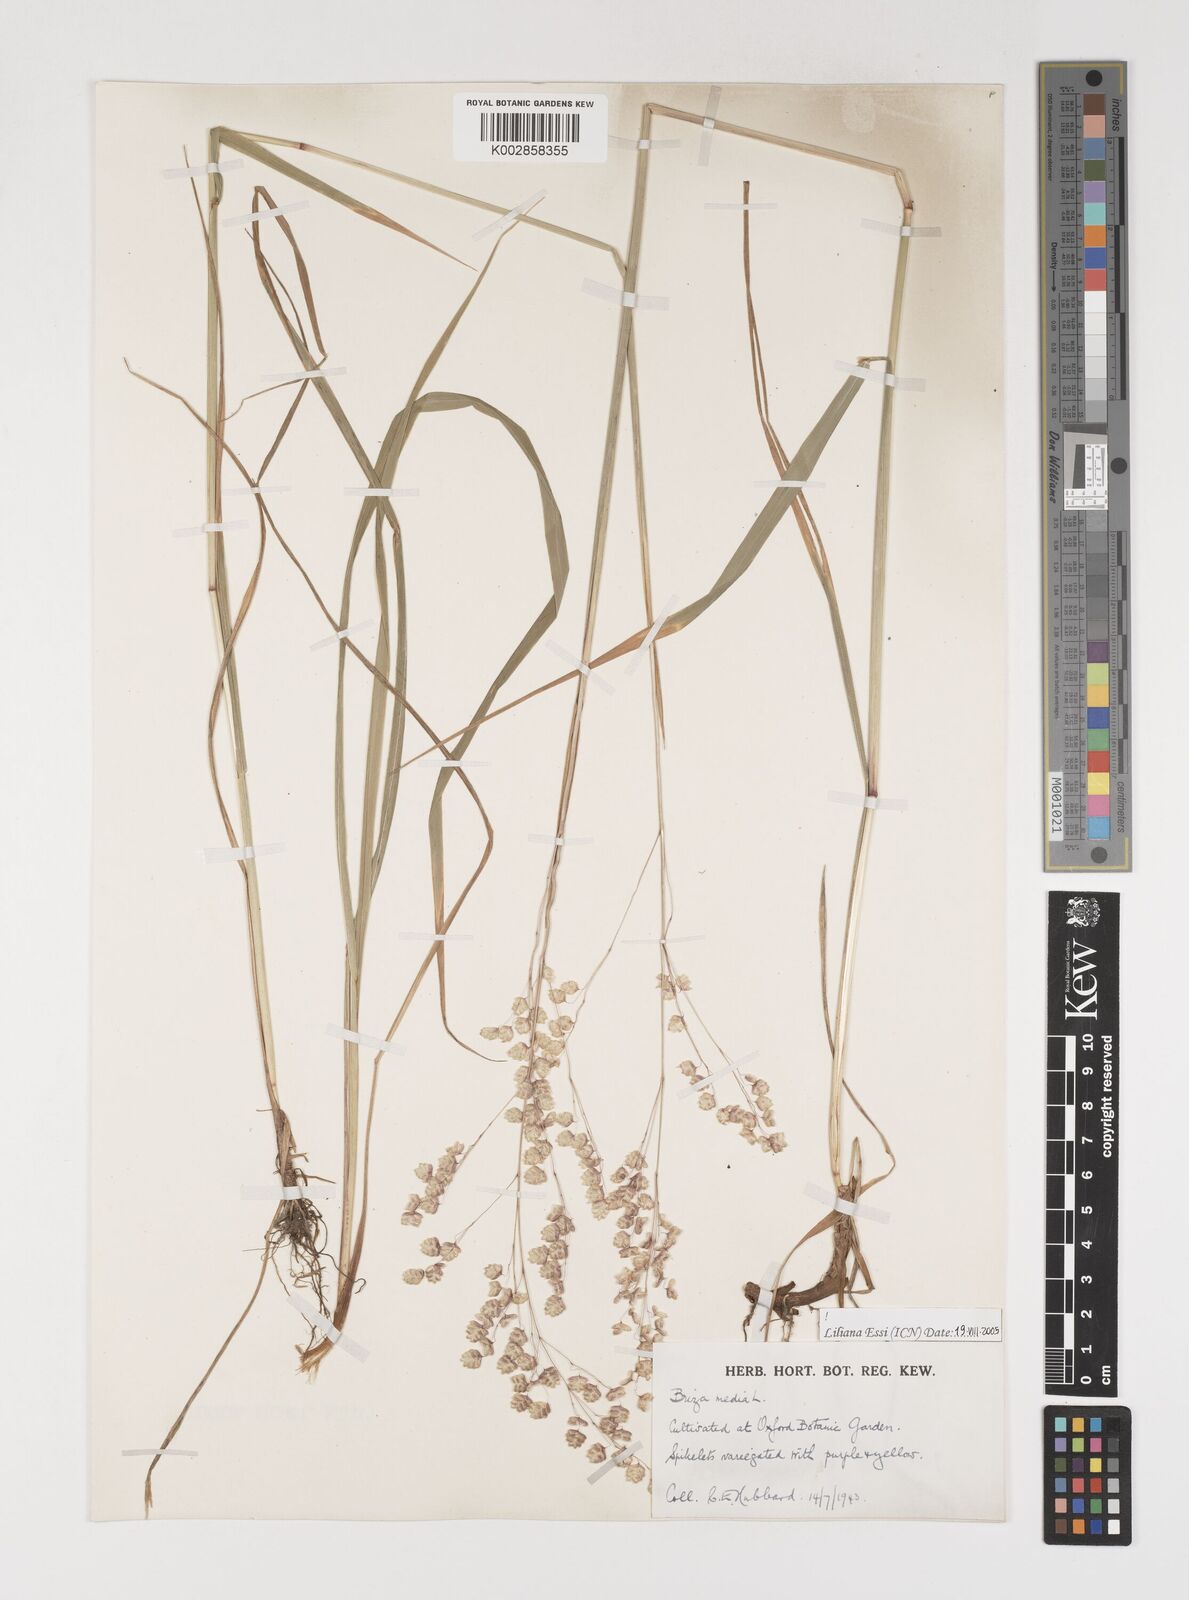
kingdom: Plantae
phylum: Tracheophyta
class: Liliopsida
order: Poales
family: Poaceae
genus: Briza
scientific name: Briza media
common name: Quaking grass
